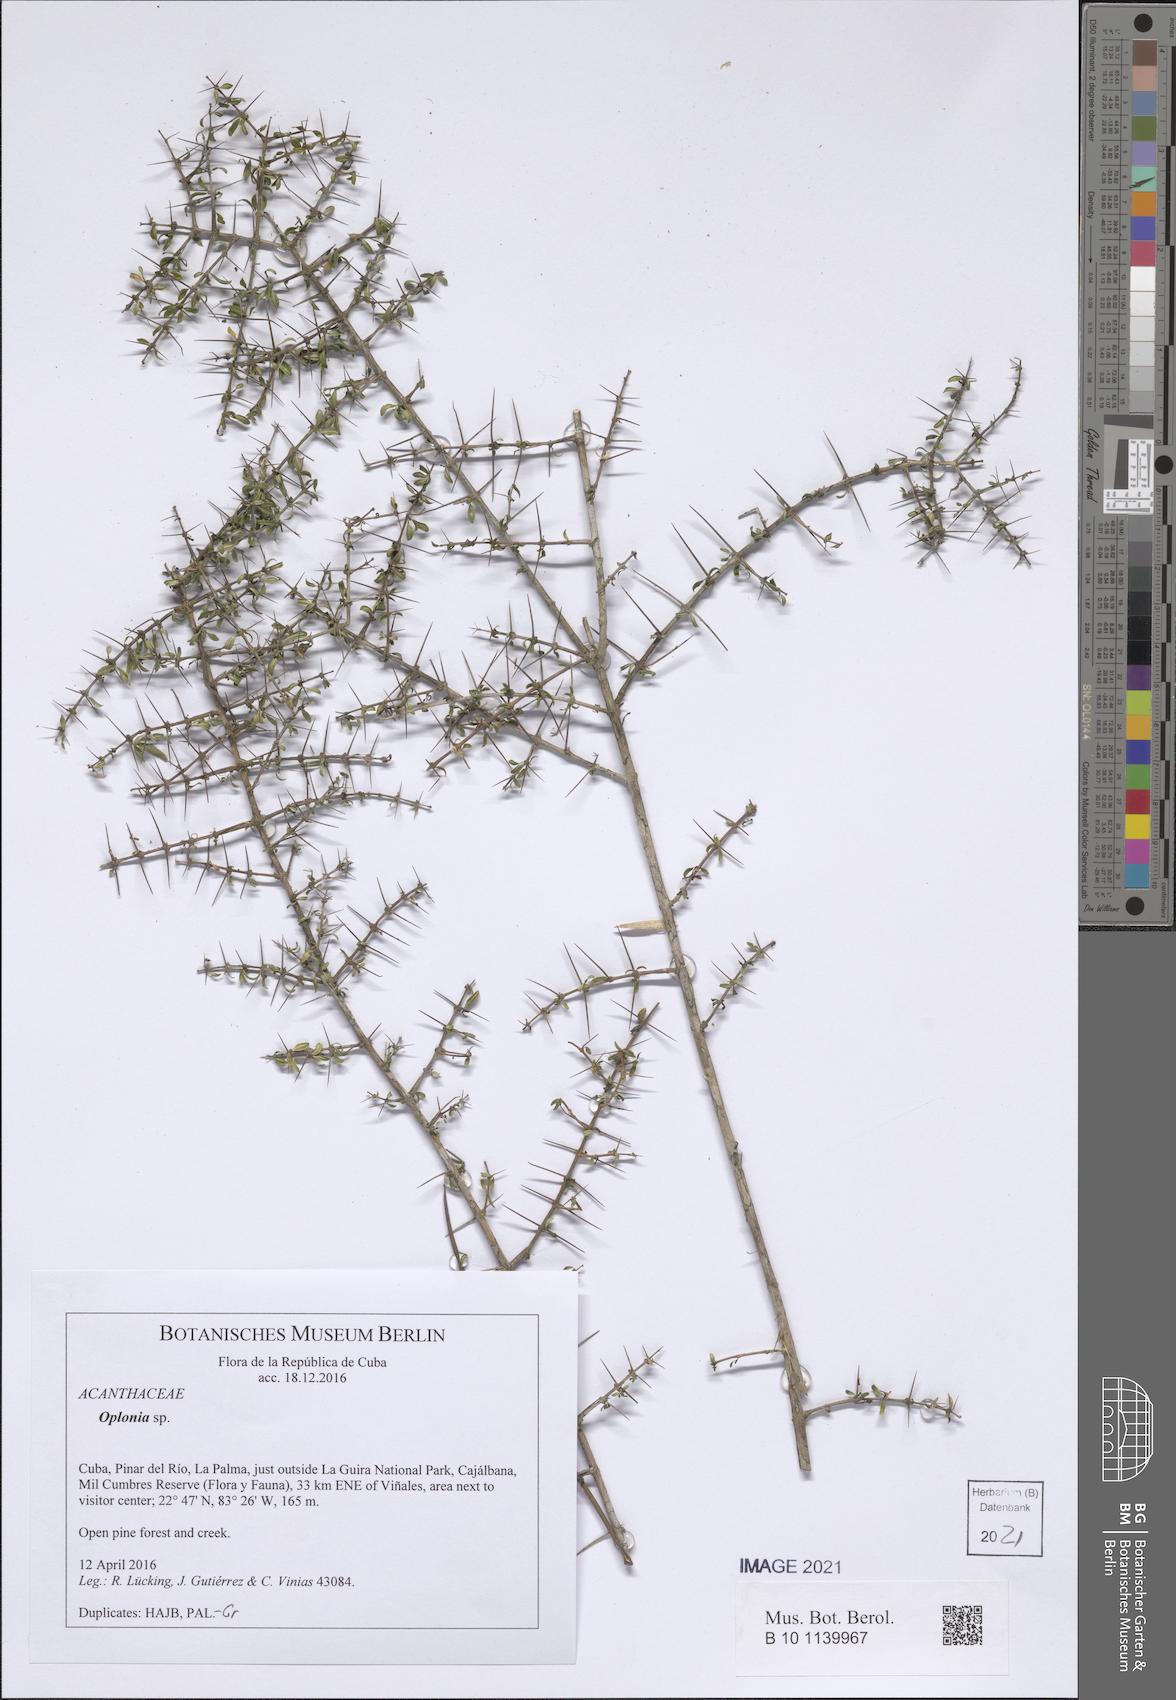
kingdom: Plantae
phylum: Tracheophyta
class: Magnoliopsida
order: Lamiales
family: Acanthaceae
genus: Oplonia
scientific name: Oplonia nannophylla
